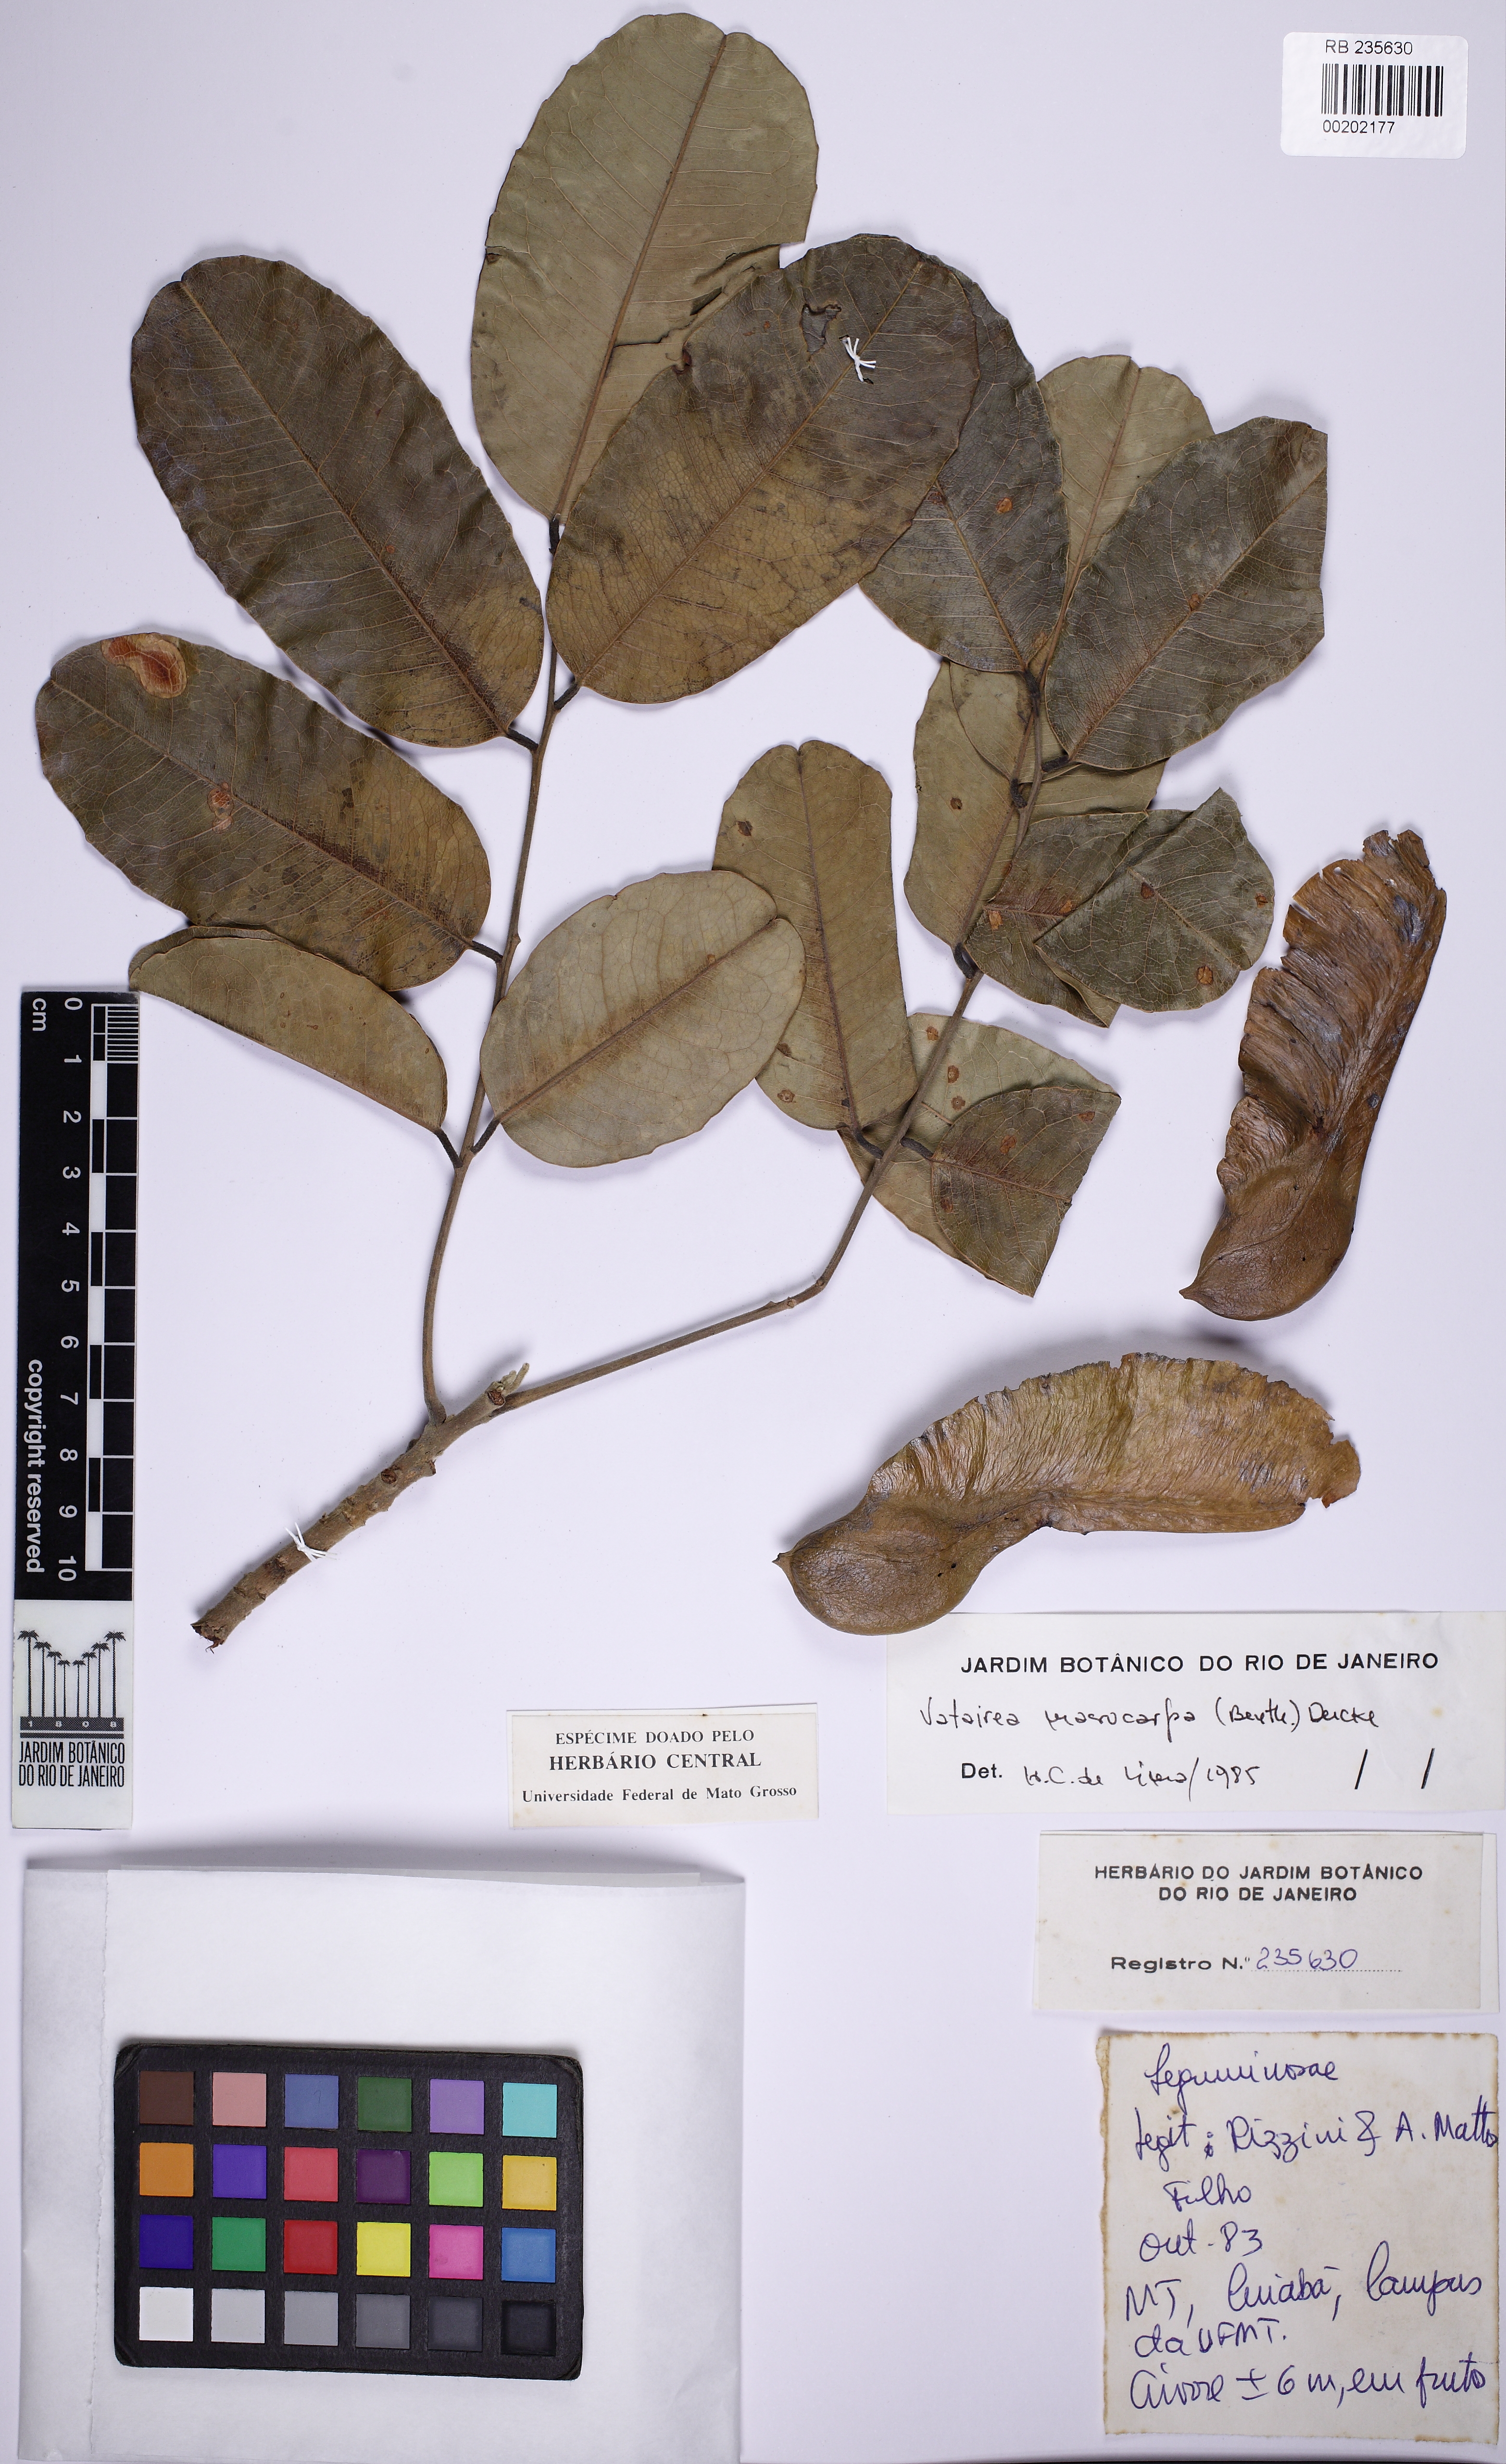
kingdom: Plantae
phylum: Tracheophyta
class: Magnoliopsida
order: Fabales
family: Fabaceae
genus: Vatairea
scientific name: Vatairea macrocarpa
